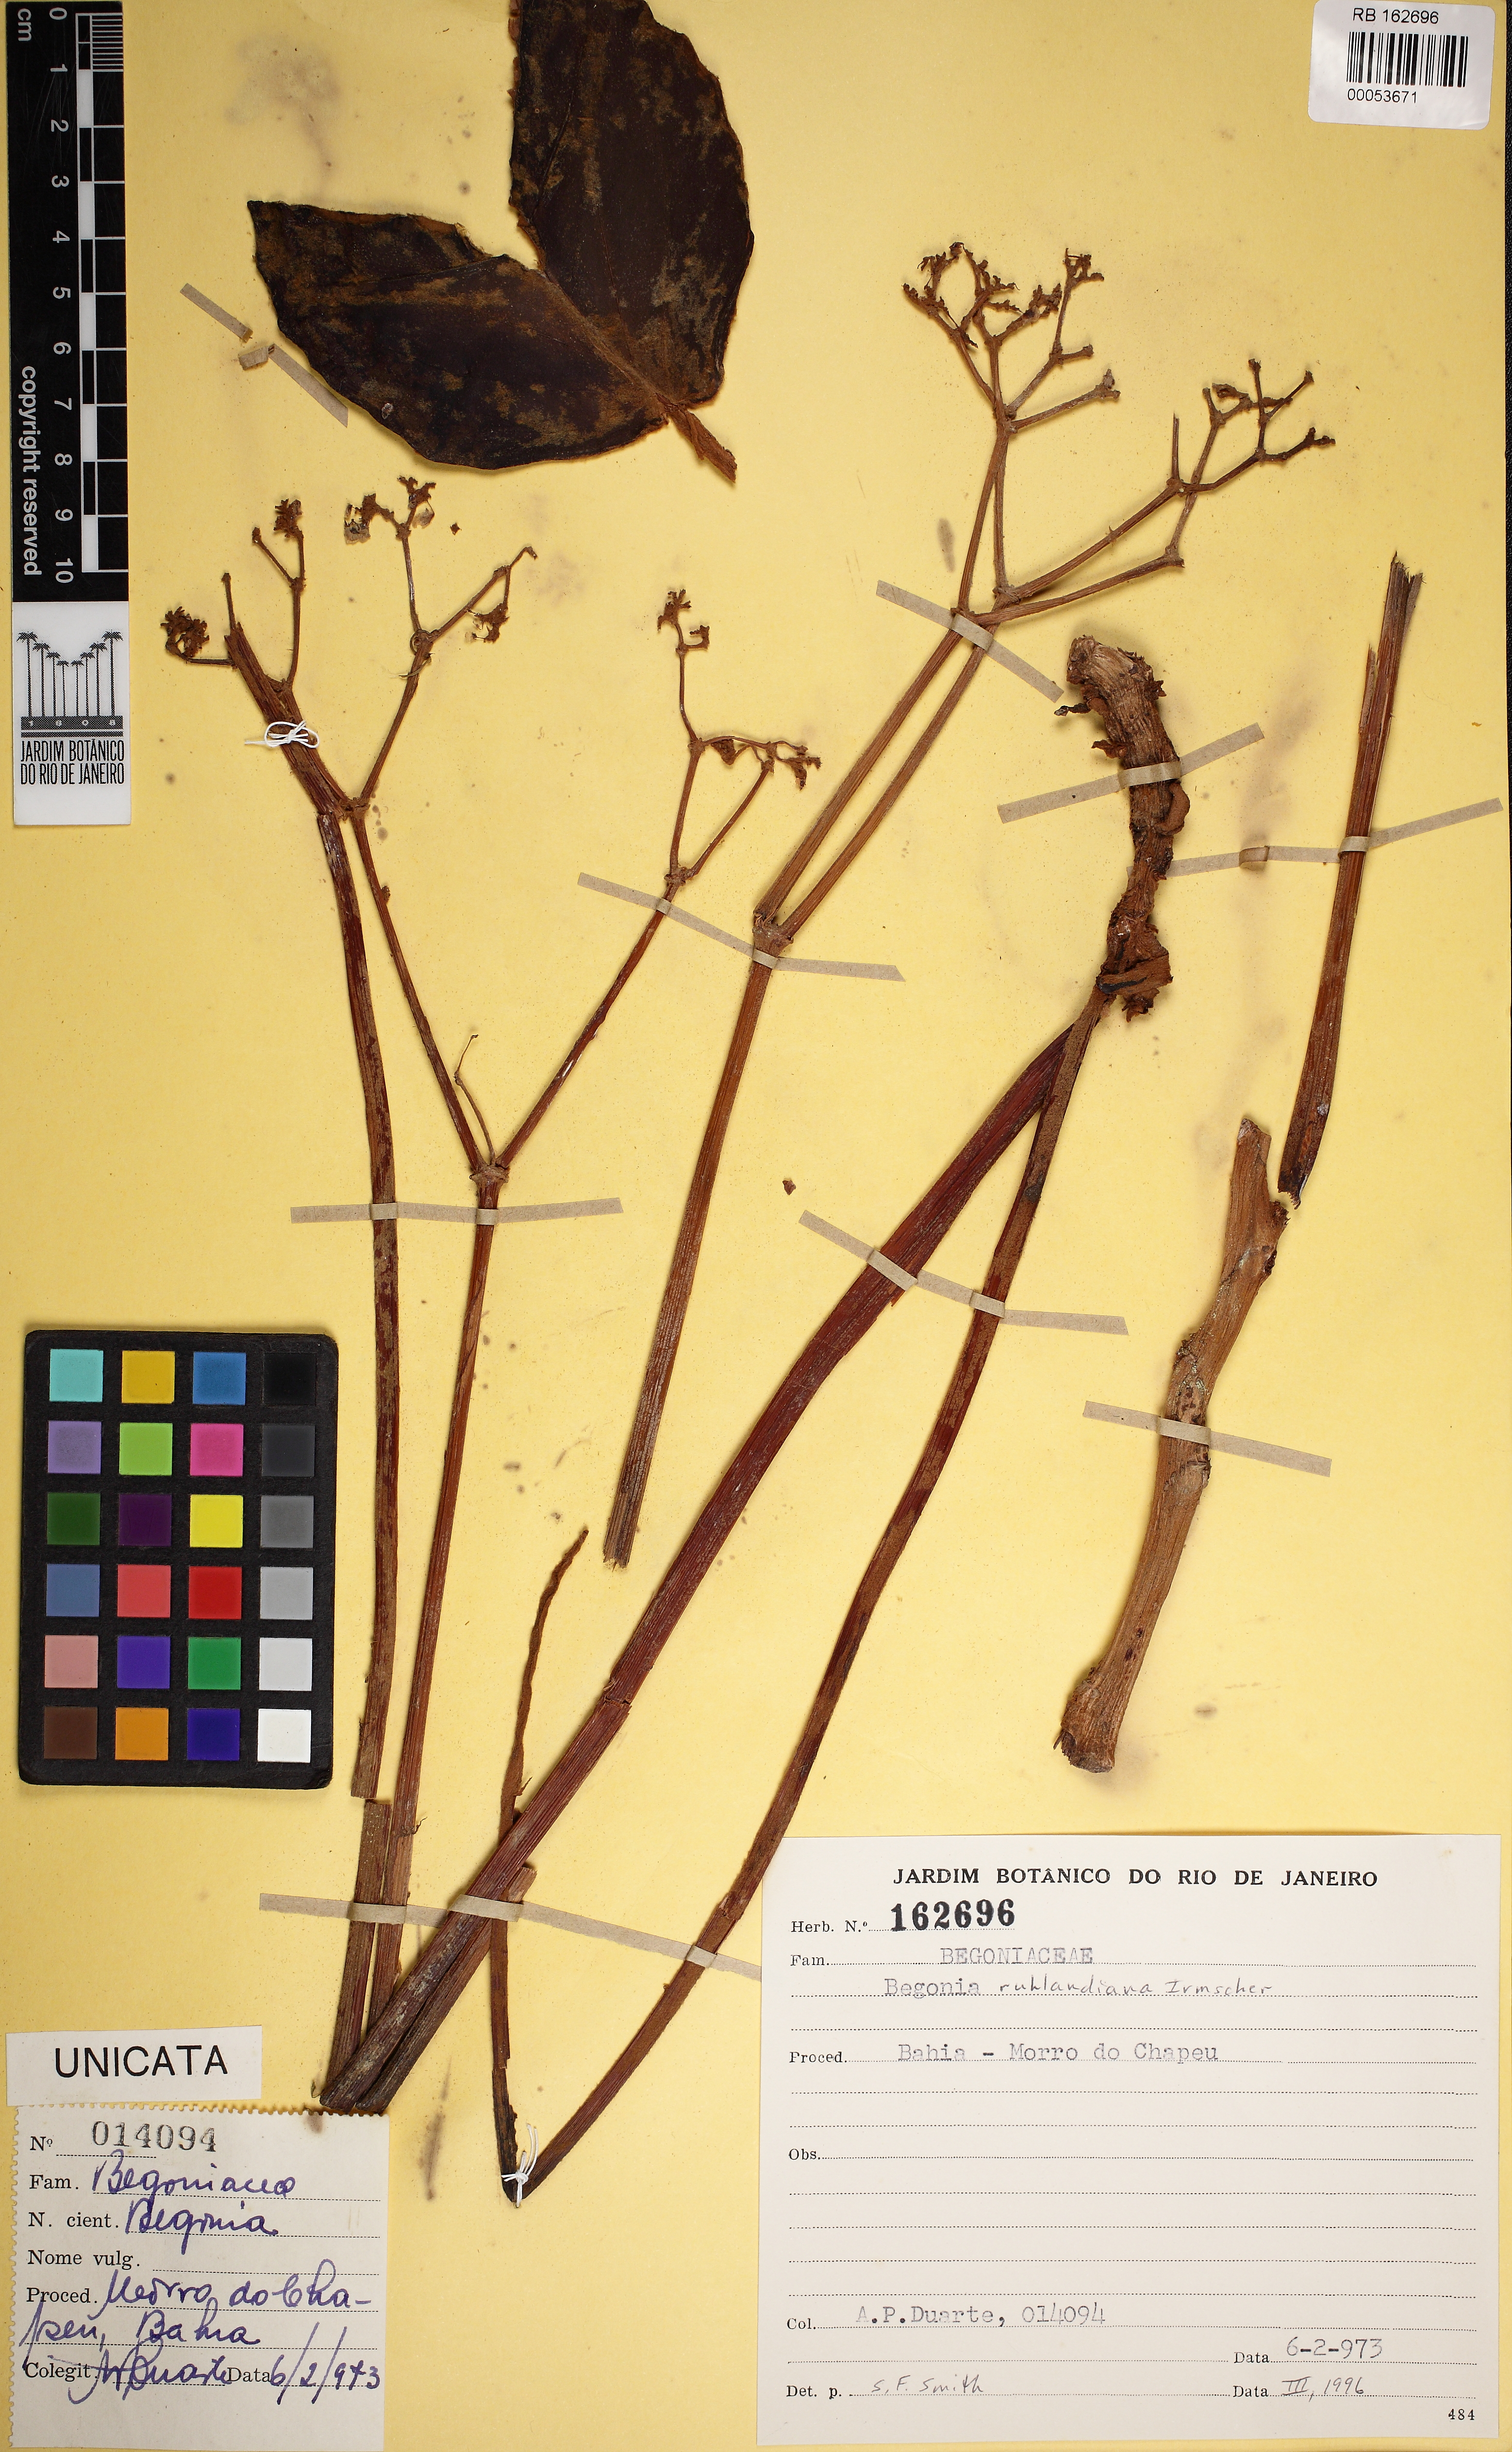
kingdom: Plantae
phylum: Tracheophyta
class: Magnoliopsida
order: Cucurbitales
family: Begoniaceae
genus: Begonia
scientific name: Begonia ruhlandiana
